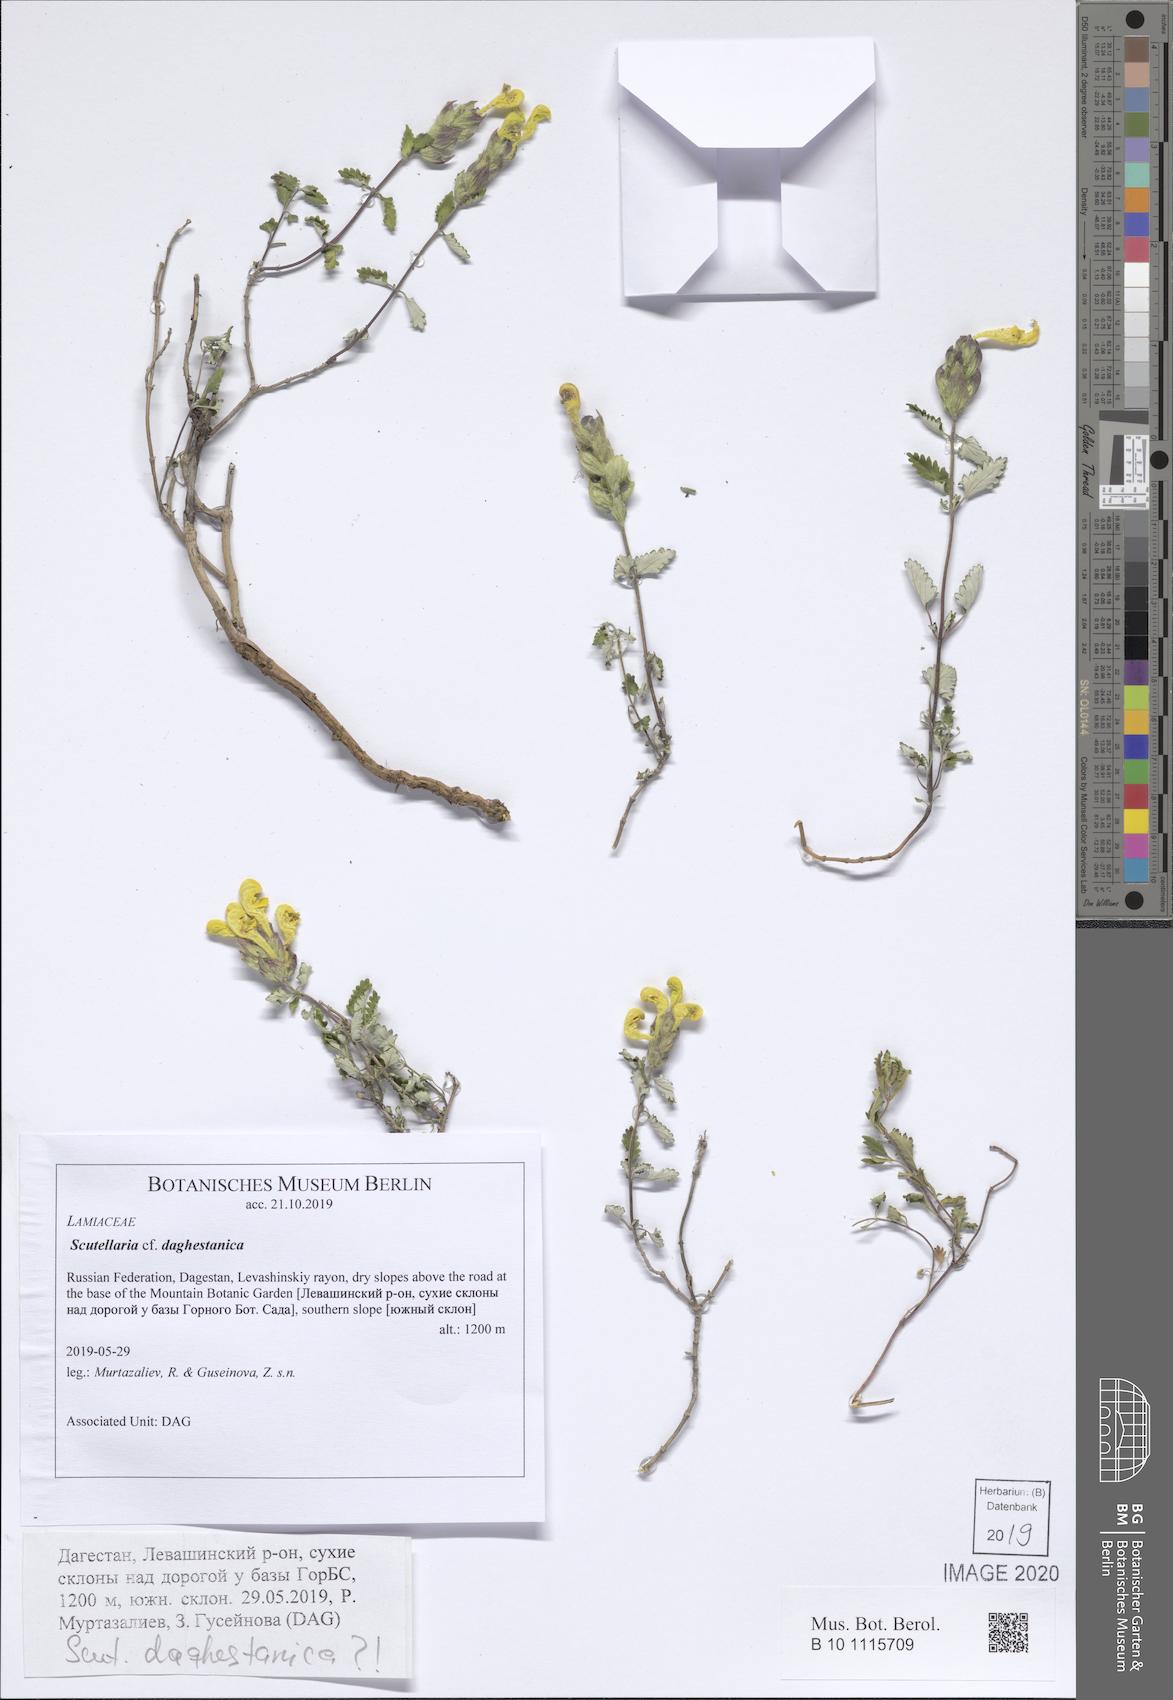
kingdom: Plantae
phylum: Tracheophyta
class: Magnoliopsida
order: Lamiales
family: Lamiaceae
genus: Scutellaria
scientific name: Scutellaria daghestanica
